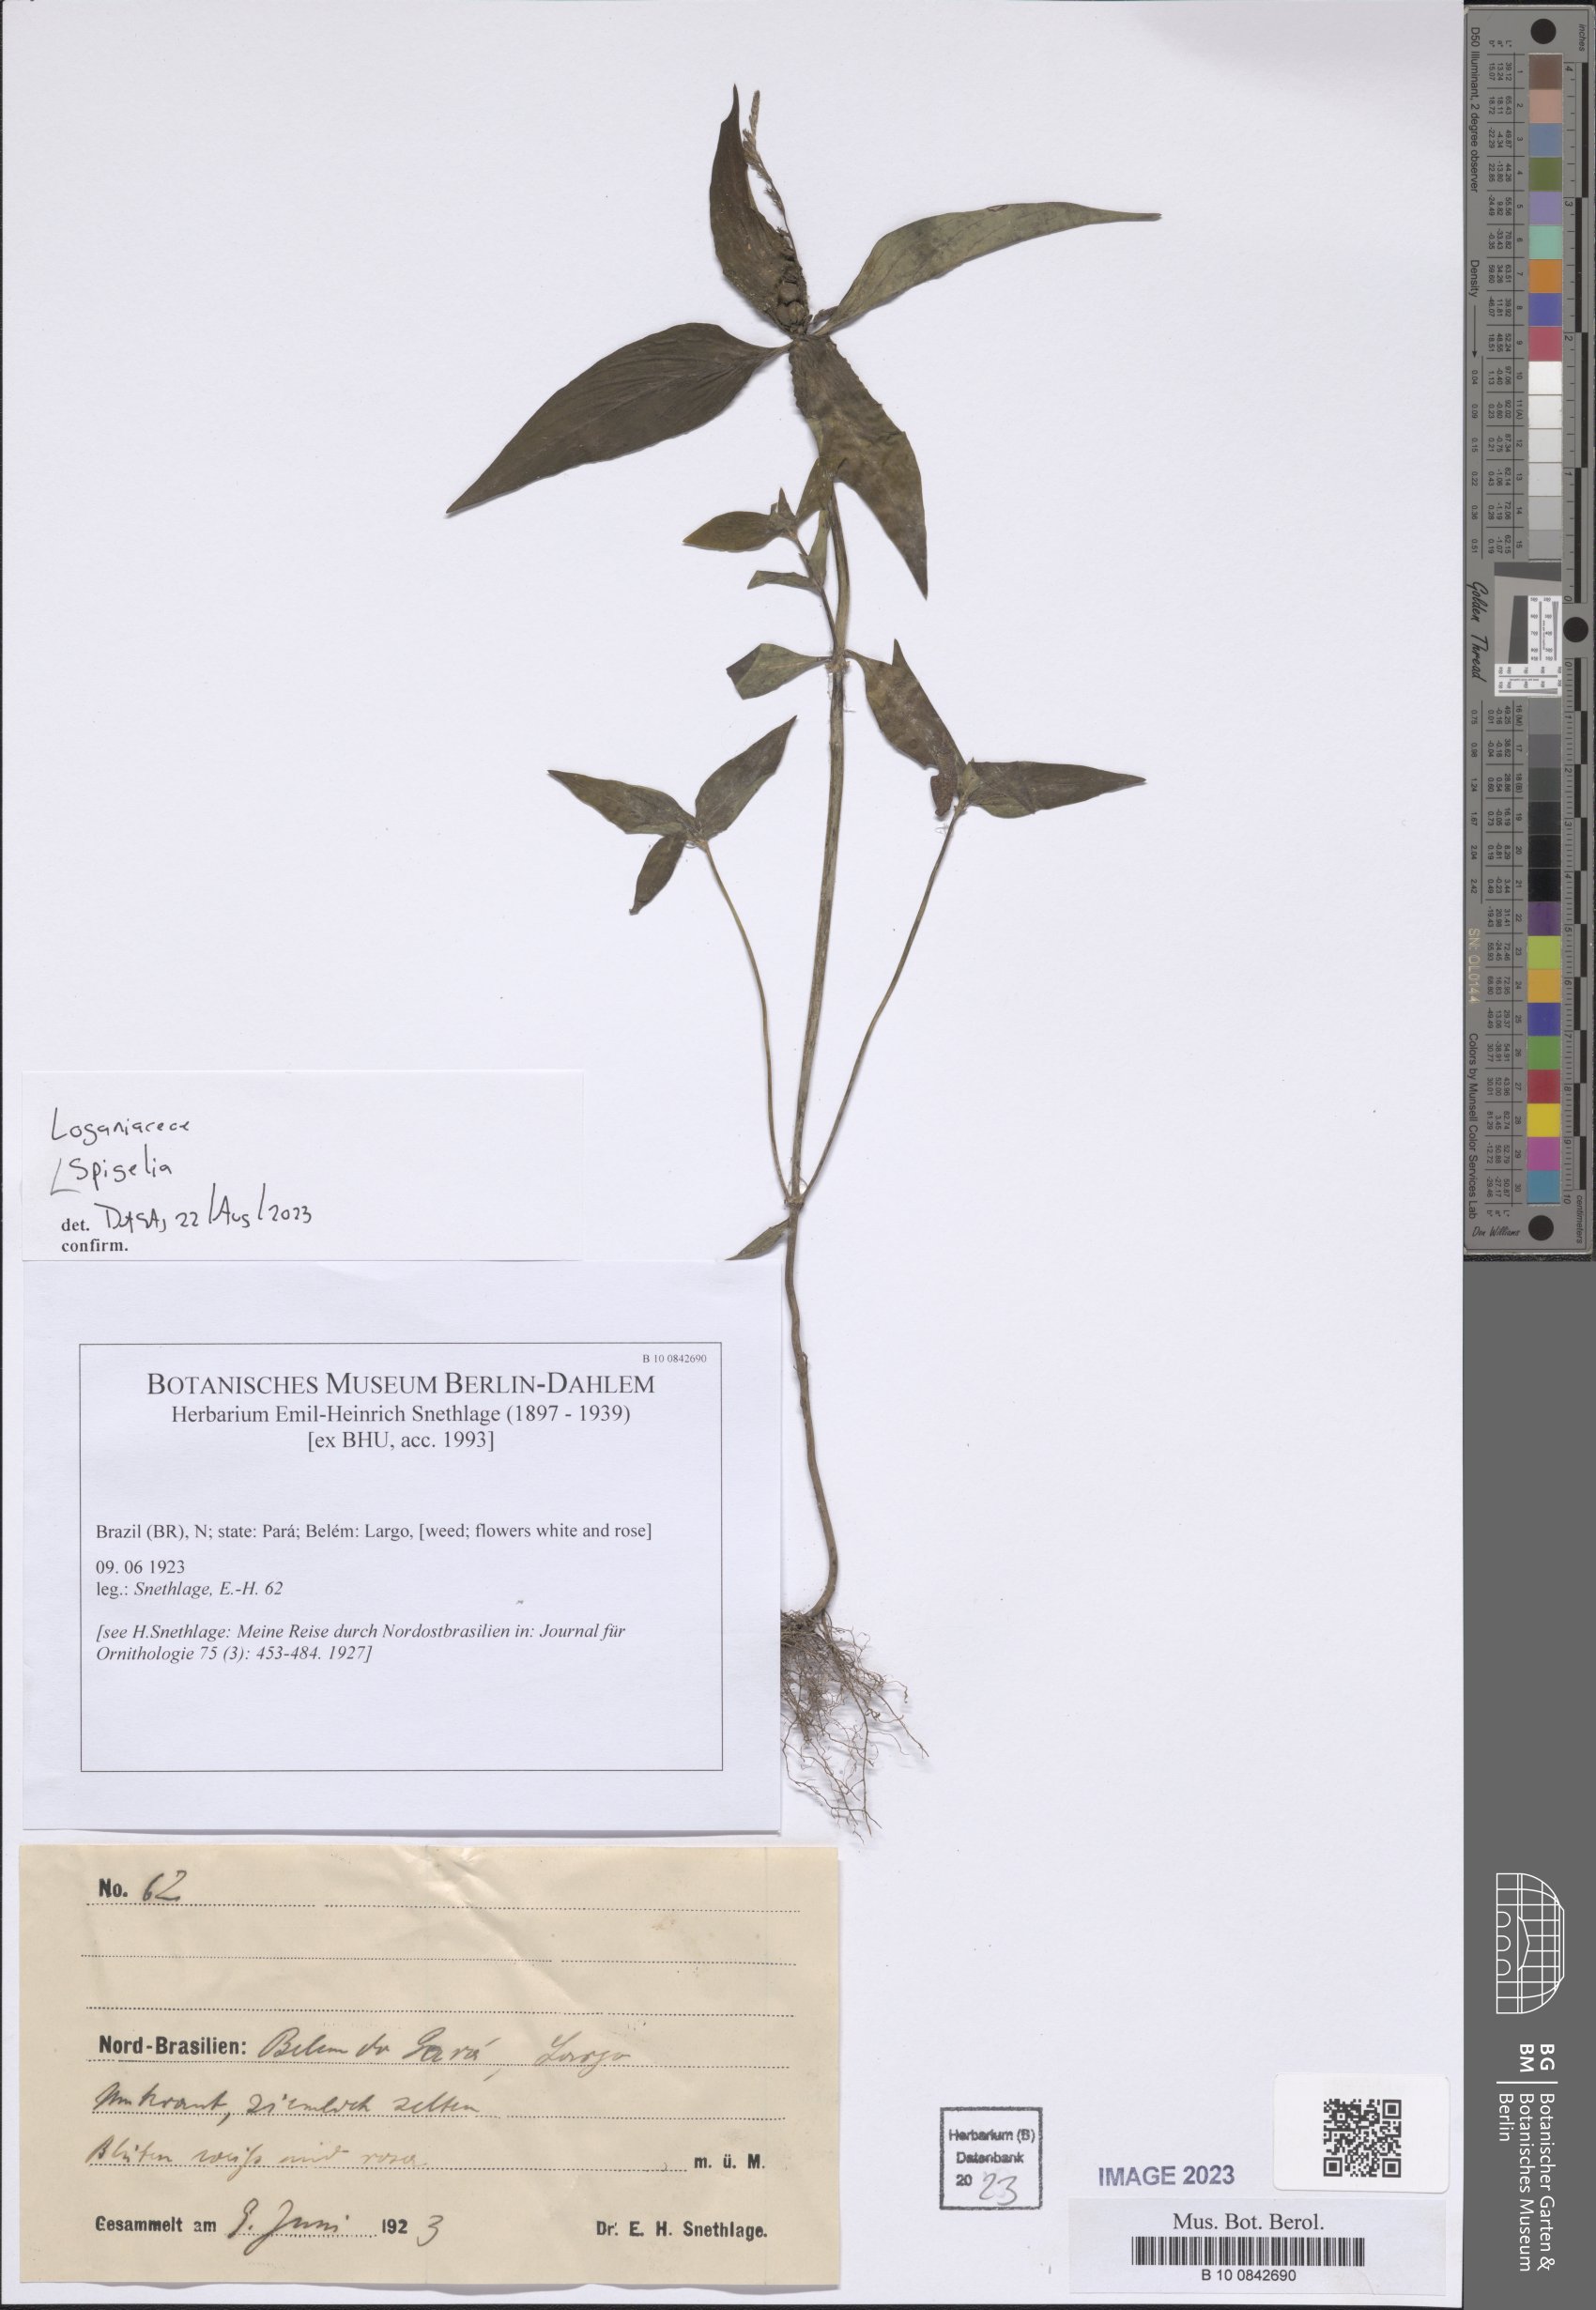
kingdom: Plantae
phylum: Tracheophyta
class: Magnoliopsida
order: Gentianales
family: Loganiaceae
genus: Spigelia
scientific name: Spigelia
